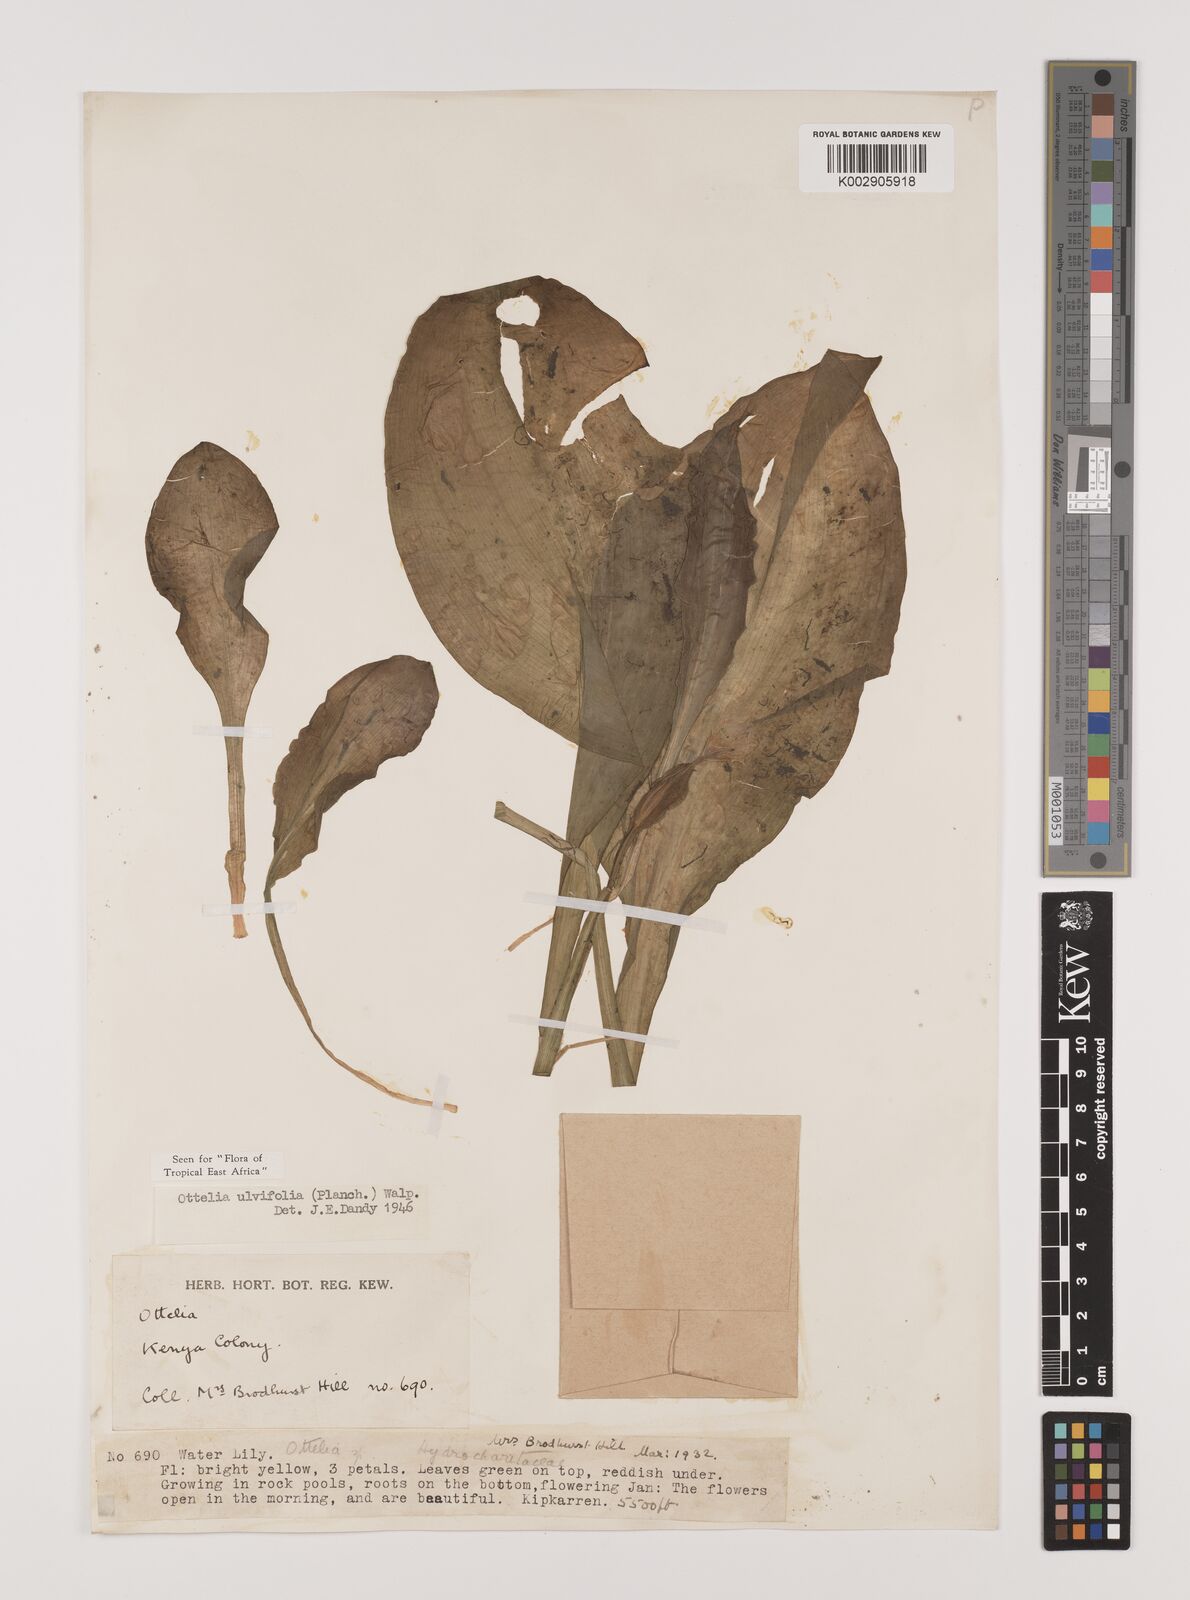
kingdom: Plantae
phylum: Tracheophyta
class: Liliopsida
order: Alismatales
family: Hydrocharitaceae
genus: Ottelia
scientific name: Ottelia ulvifolia
